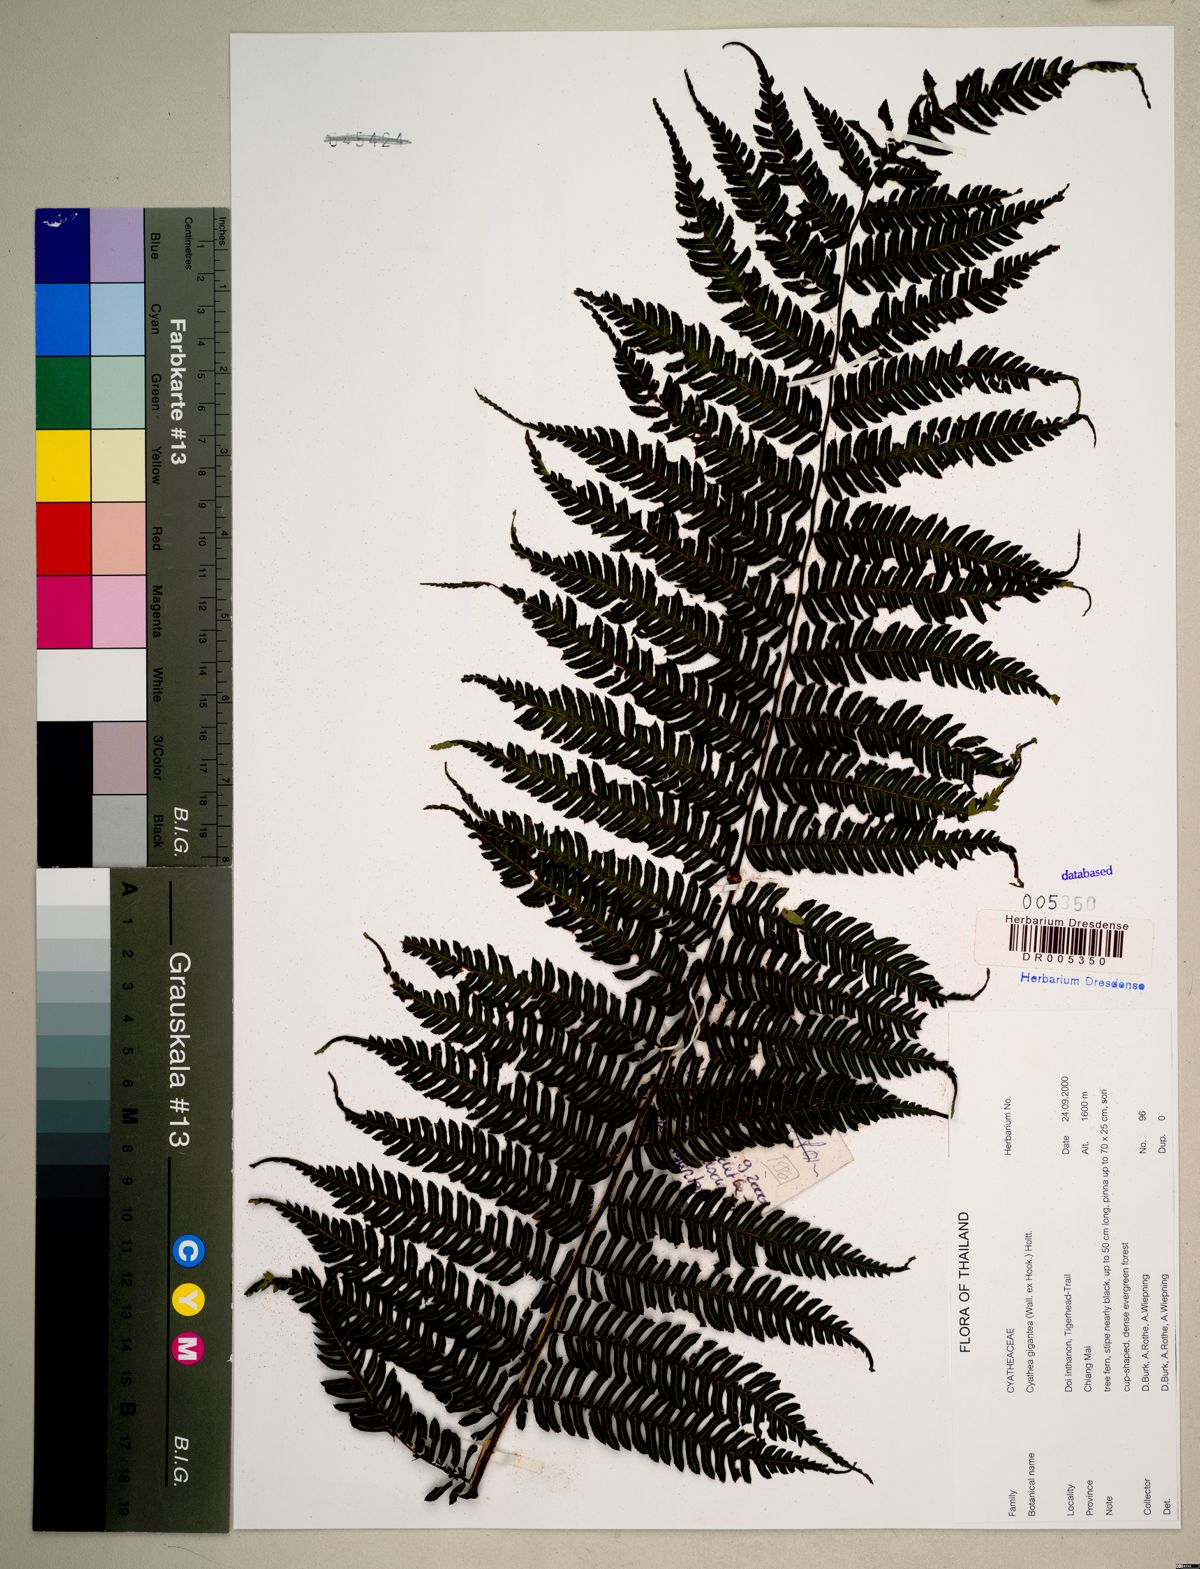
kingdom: Plantae
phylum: Tracheophyta
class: Polypodiopsida
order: Cyatheales
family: Cyatheaceae
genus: Gymnosphaera
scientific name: Gymnosphaera gigantea
